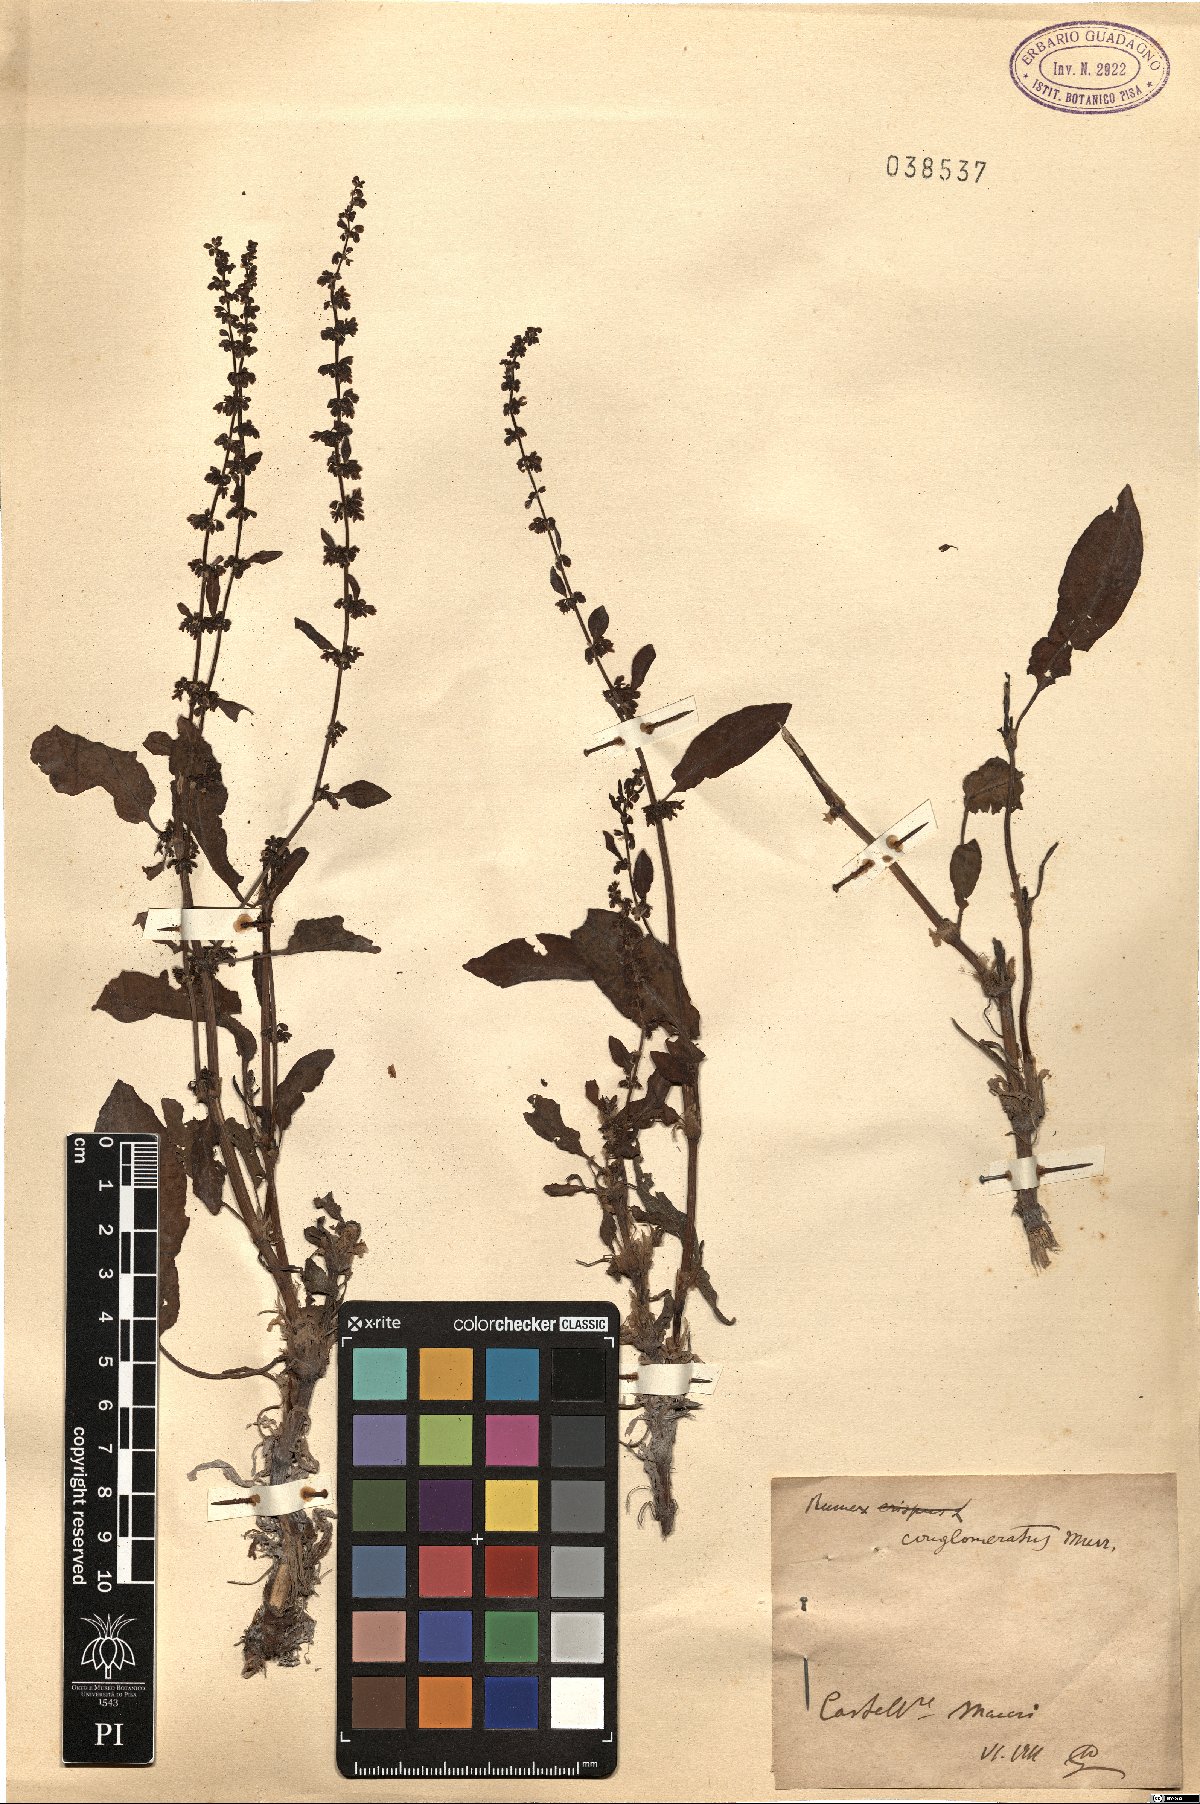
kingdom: Plantae
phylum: Tracheophyta
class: Magnoliopsida
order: Caryophyllales
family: Polygonaceae
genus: Rumex
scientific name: Rumex conglomeratus
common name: Clustered dock
